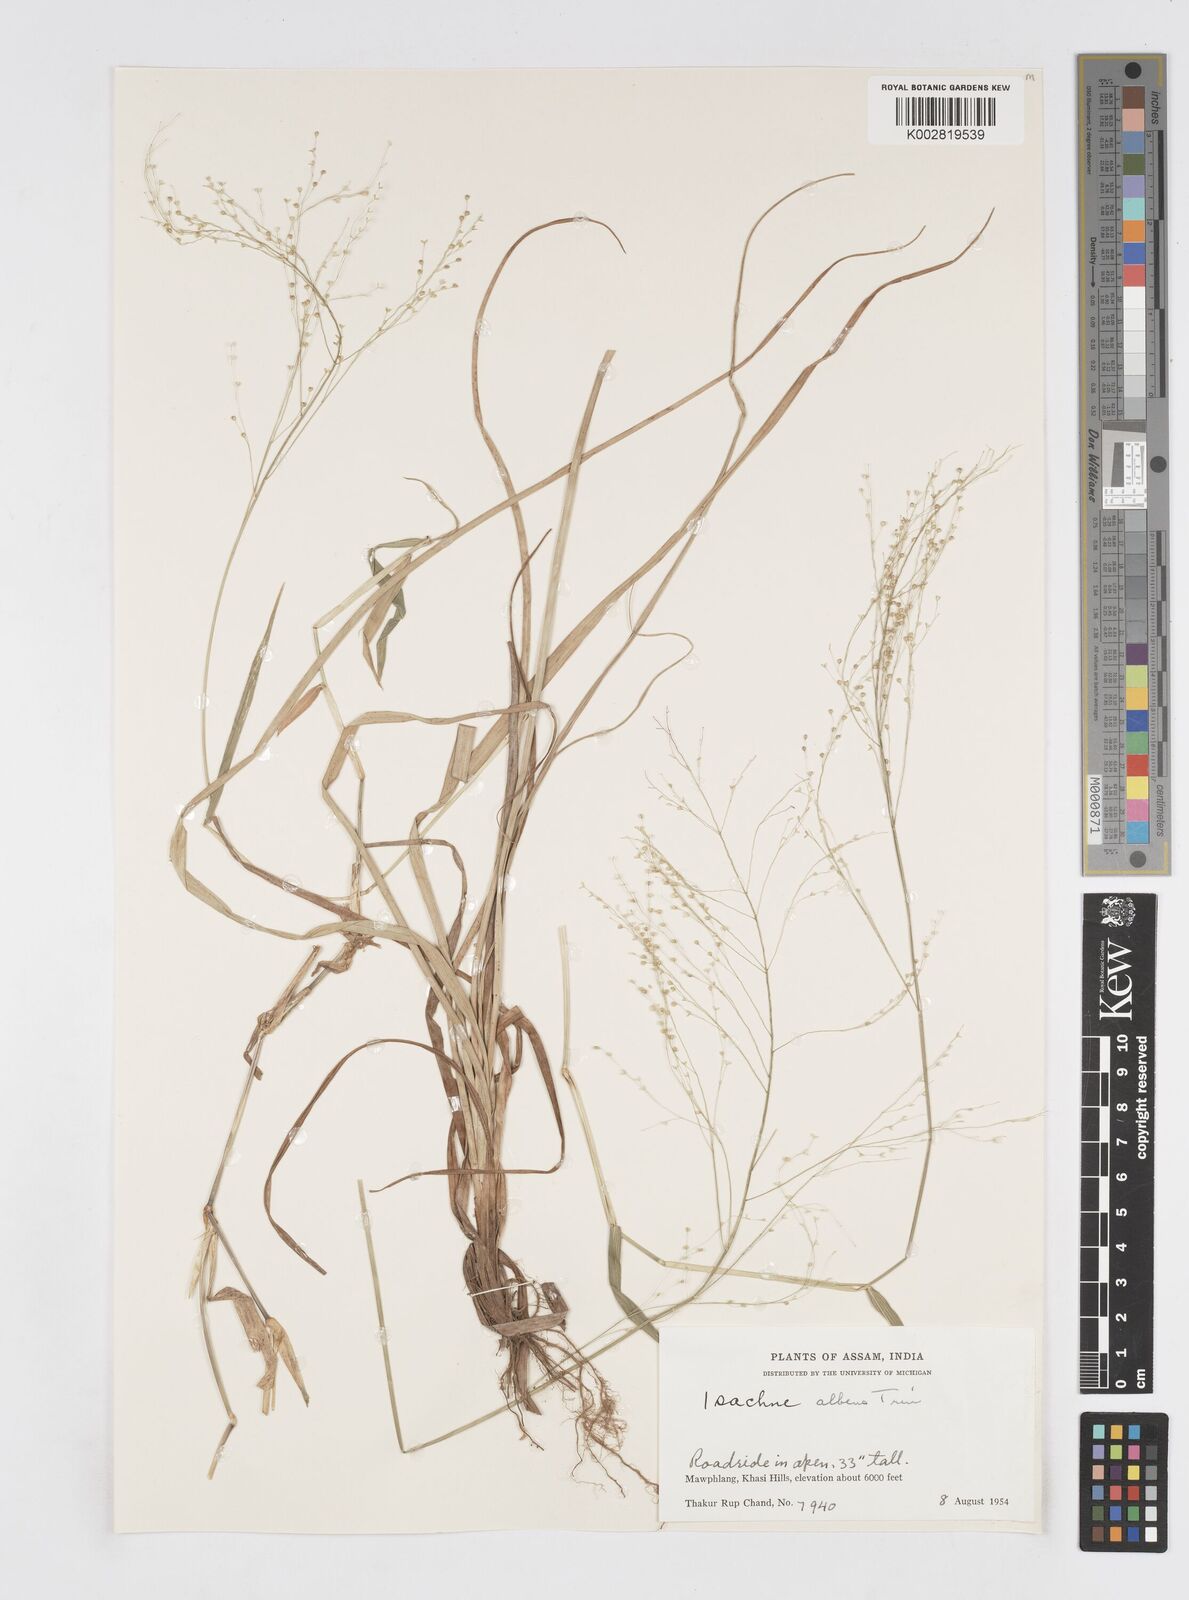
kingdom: Plantae
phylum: Tracheophyta
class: Liliopsida
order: Poales
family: Poaceae
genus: Isachne
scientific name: Isachne albens
